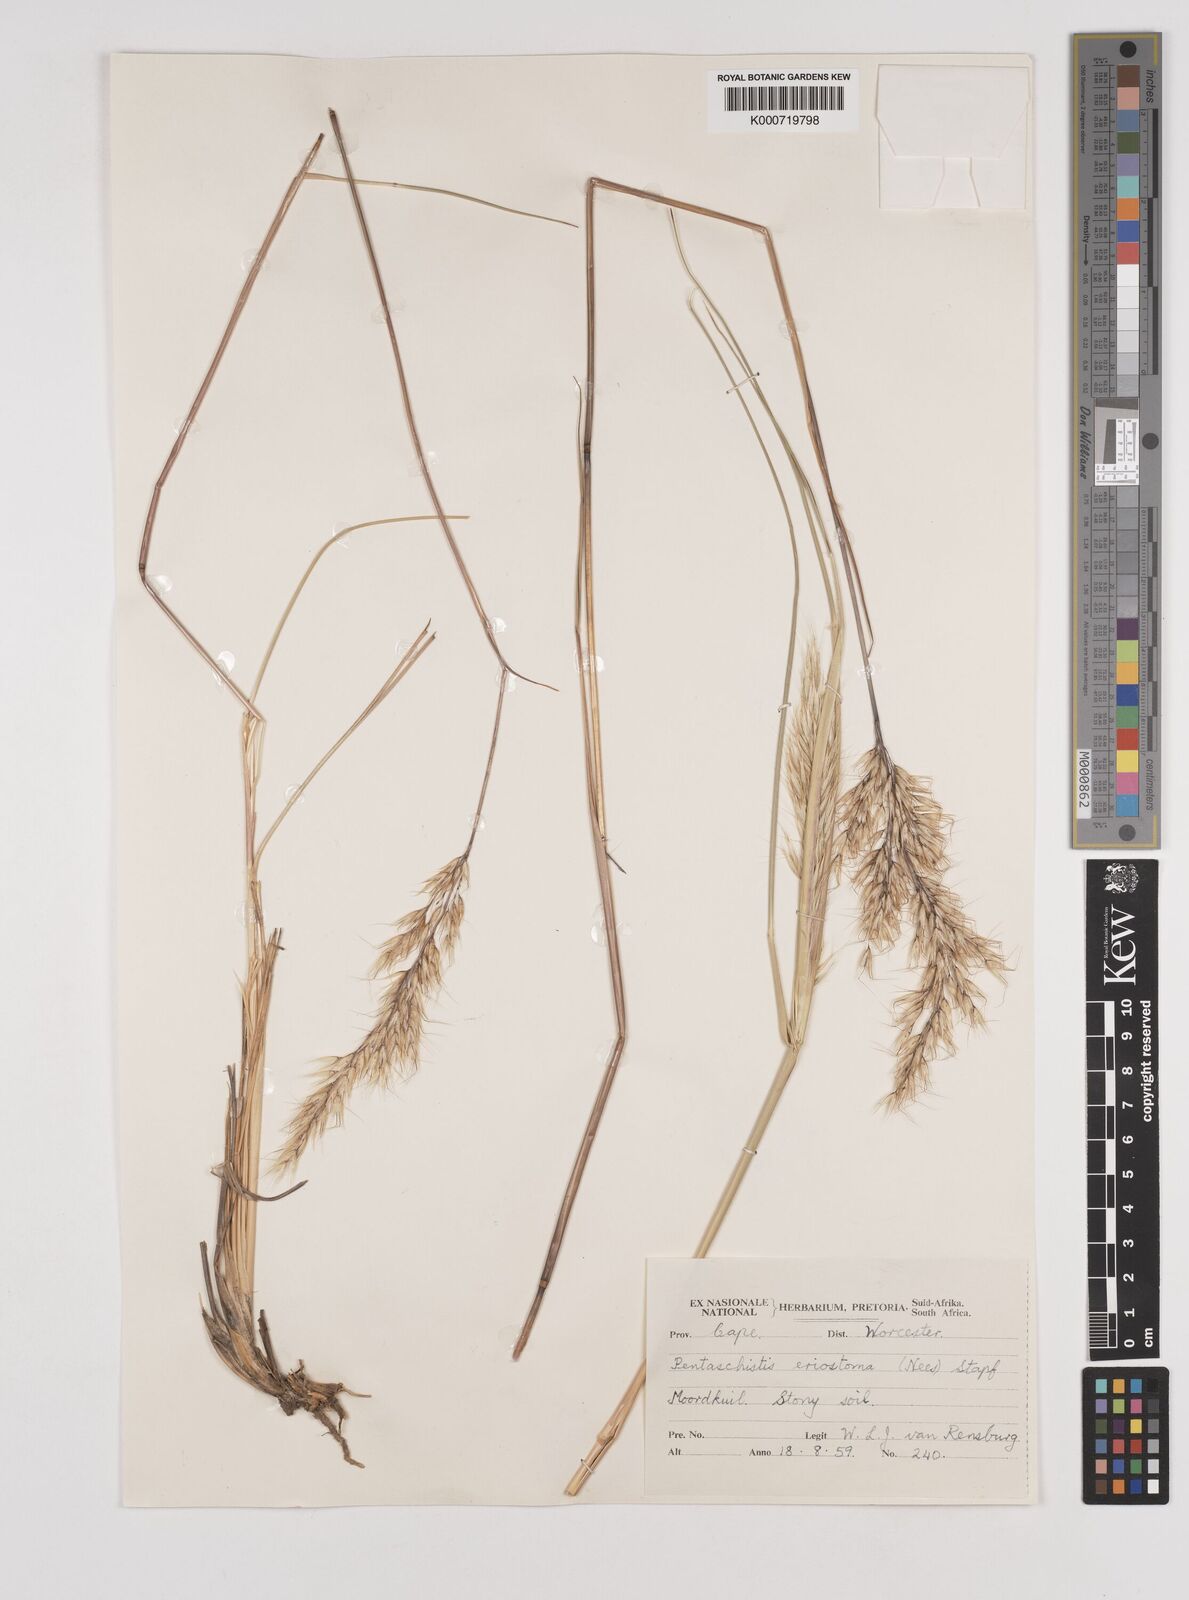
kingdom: Plantae
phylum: Tracheophyta
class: Liliopsida
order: Poales
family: Poaceae
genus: Pentameris
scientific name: Pentameris eriostoma
